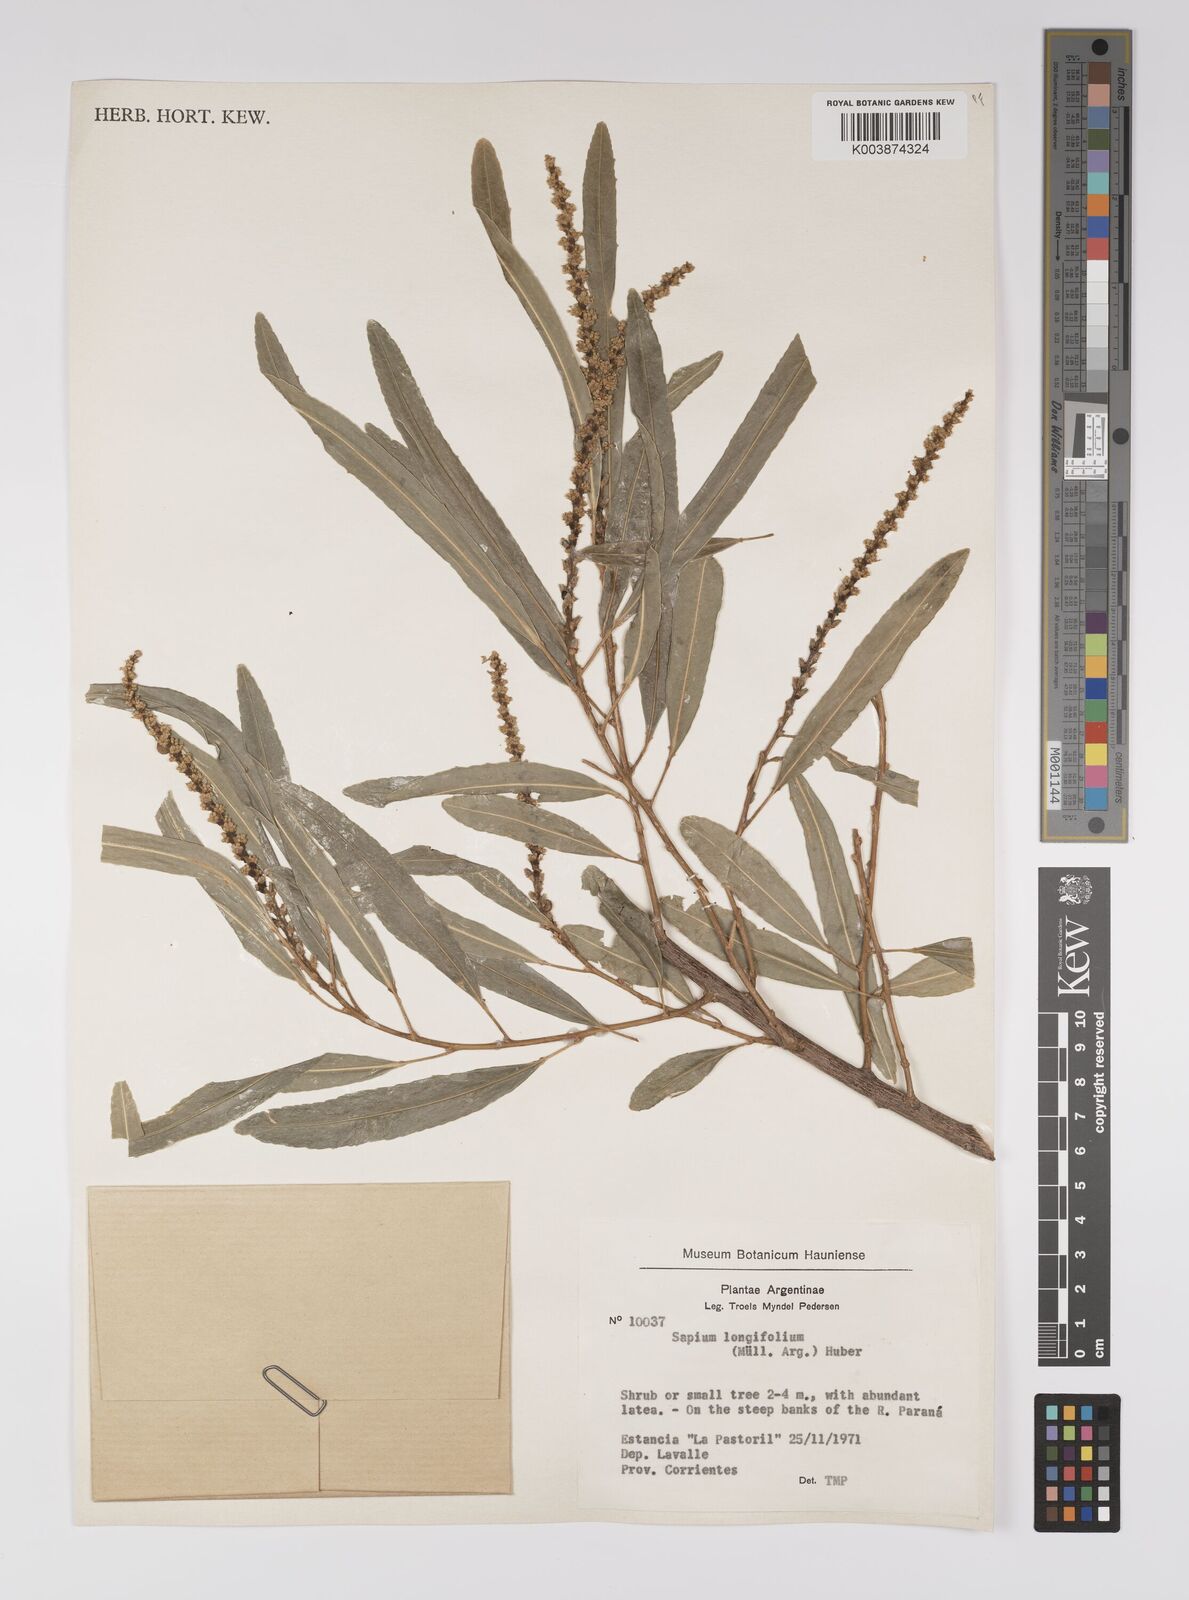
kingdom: Plantae
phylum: Tracheophyta
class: Magnoliopsida
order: Malpighiales
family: Euphorbiaceae
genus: Sapium
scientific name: Sapium haematospermum
